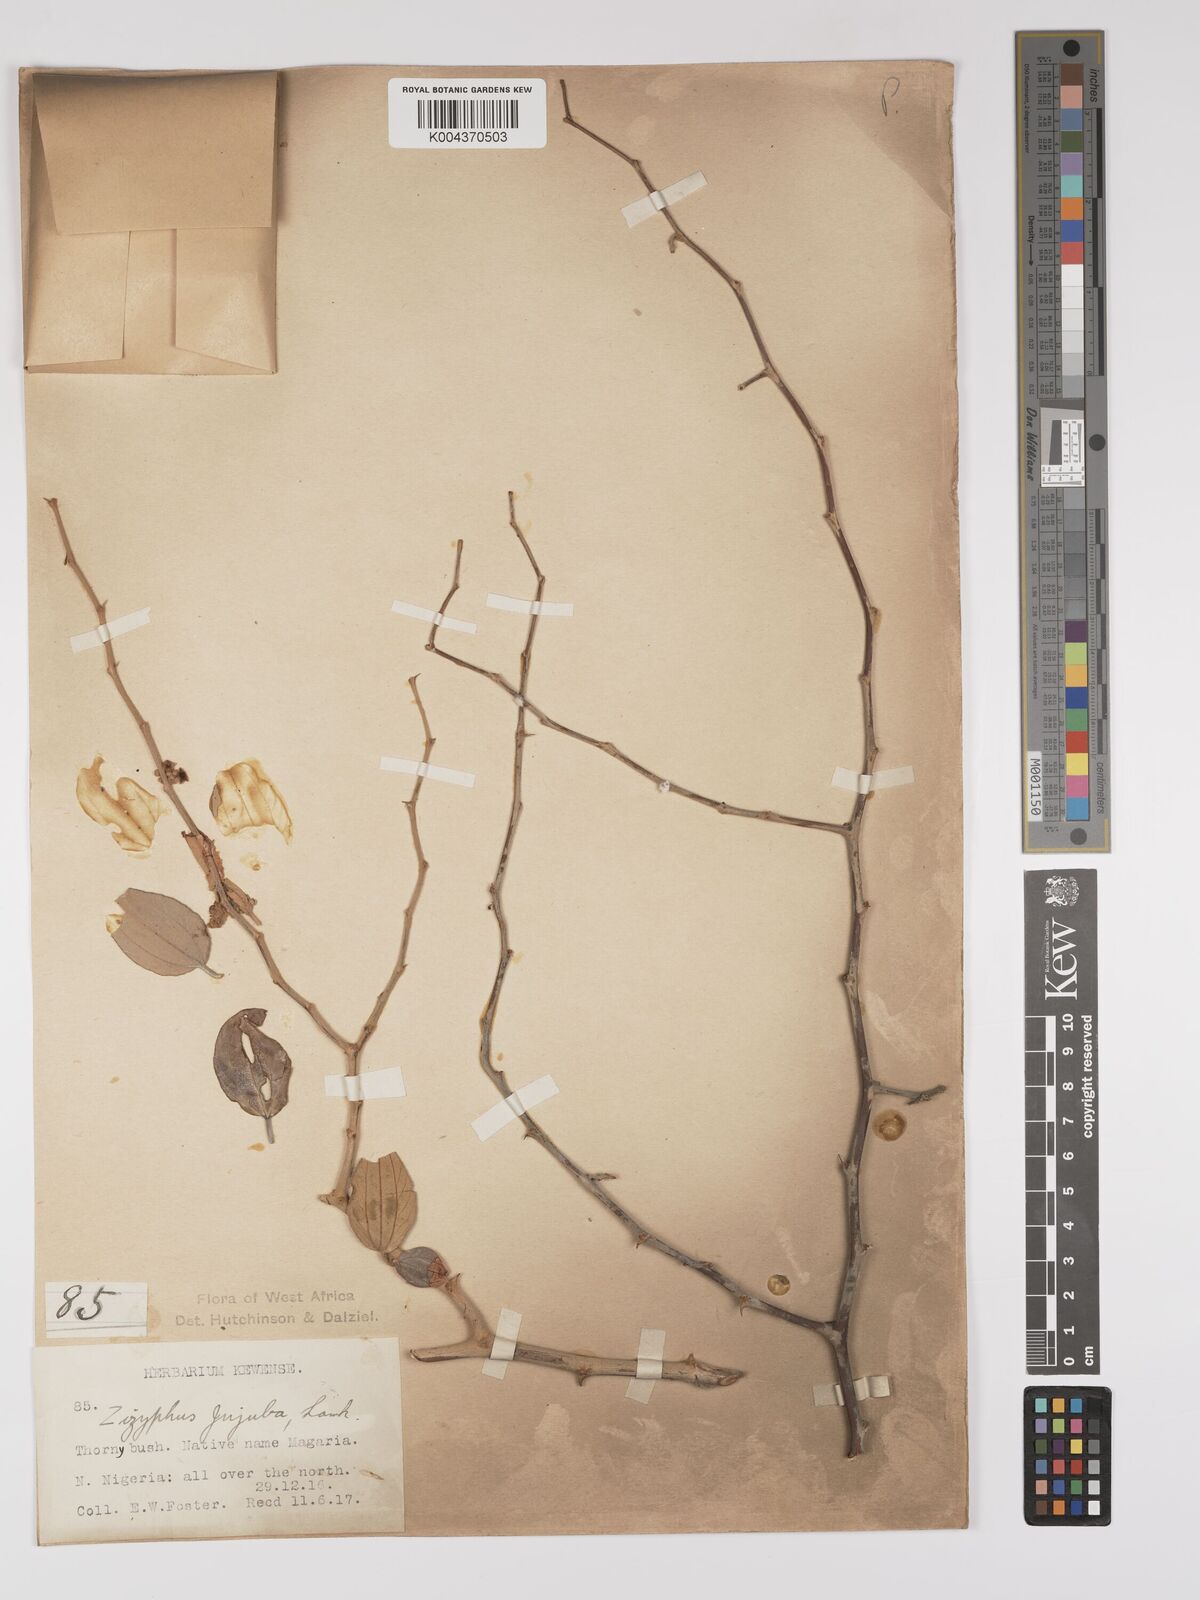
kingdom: Plantae
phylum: Tracheophyta
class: Magnoliopsida
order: Rosales
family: Rhamnaceae
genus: Ziziphus
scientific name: Ziziphus mauritiana
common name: Indian jujube
